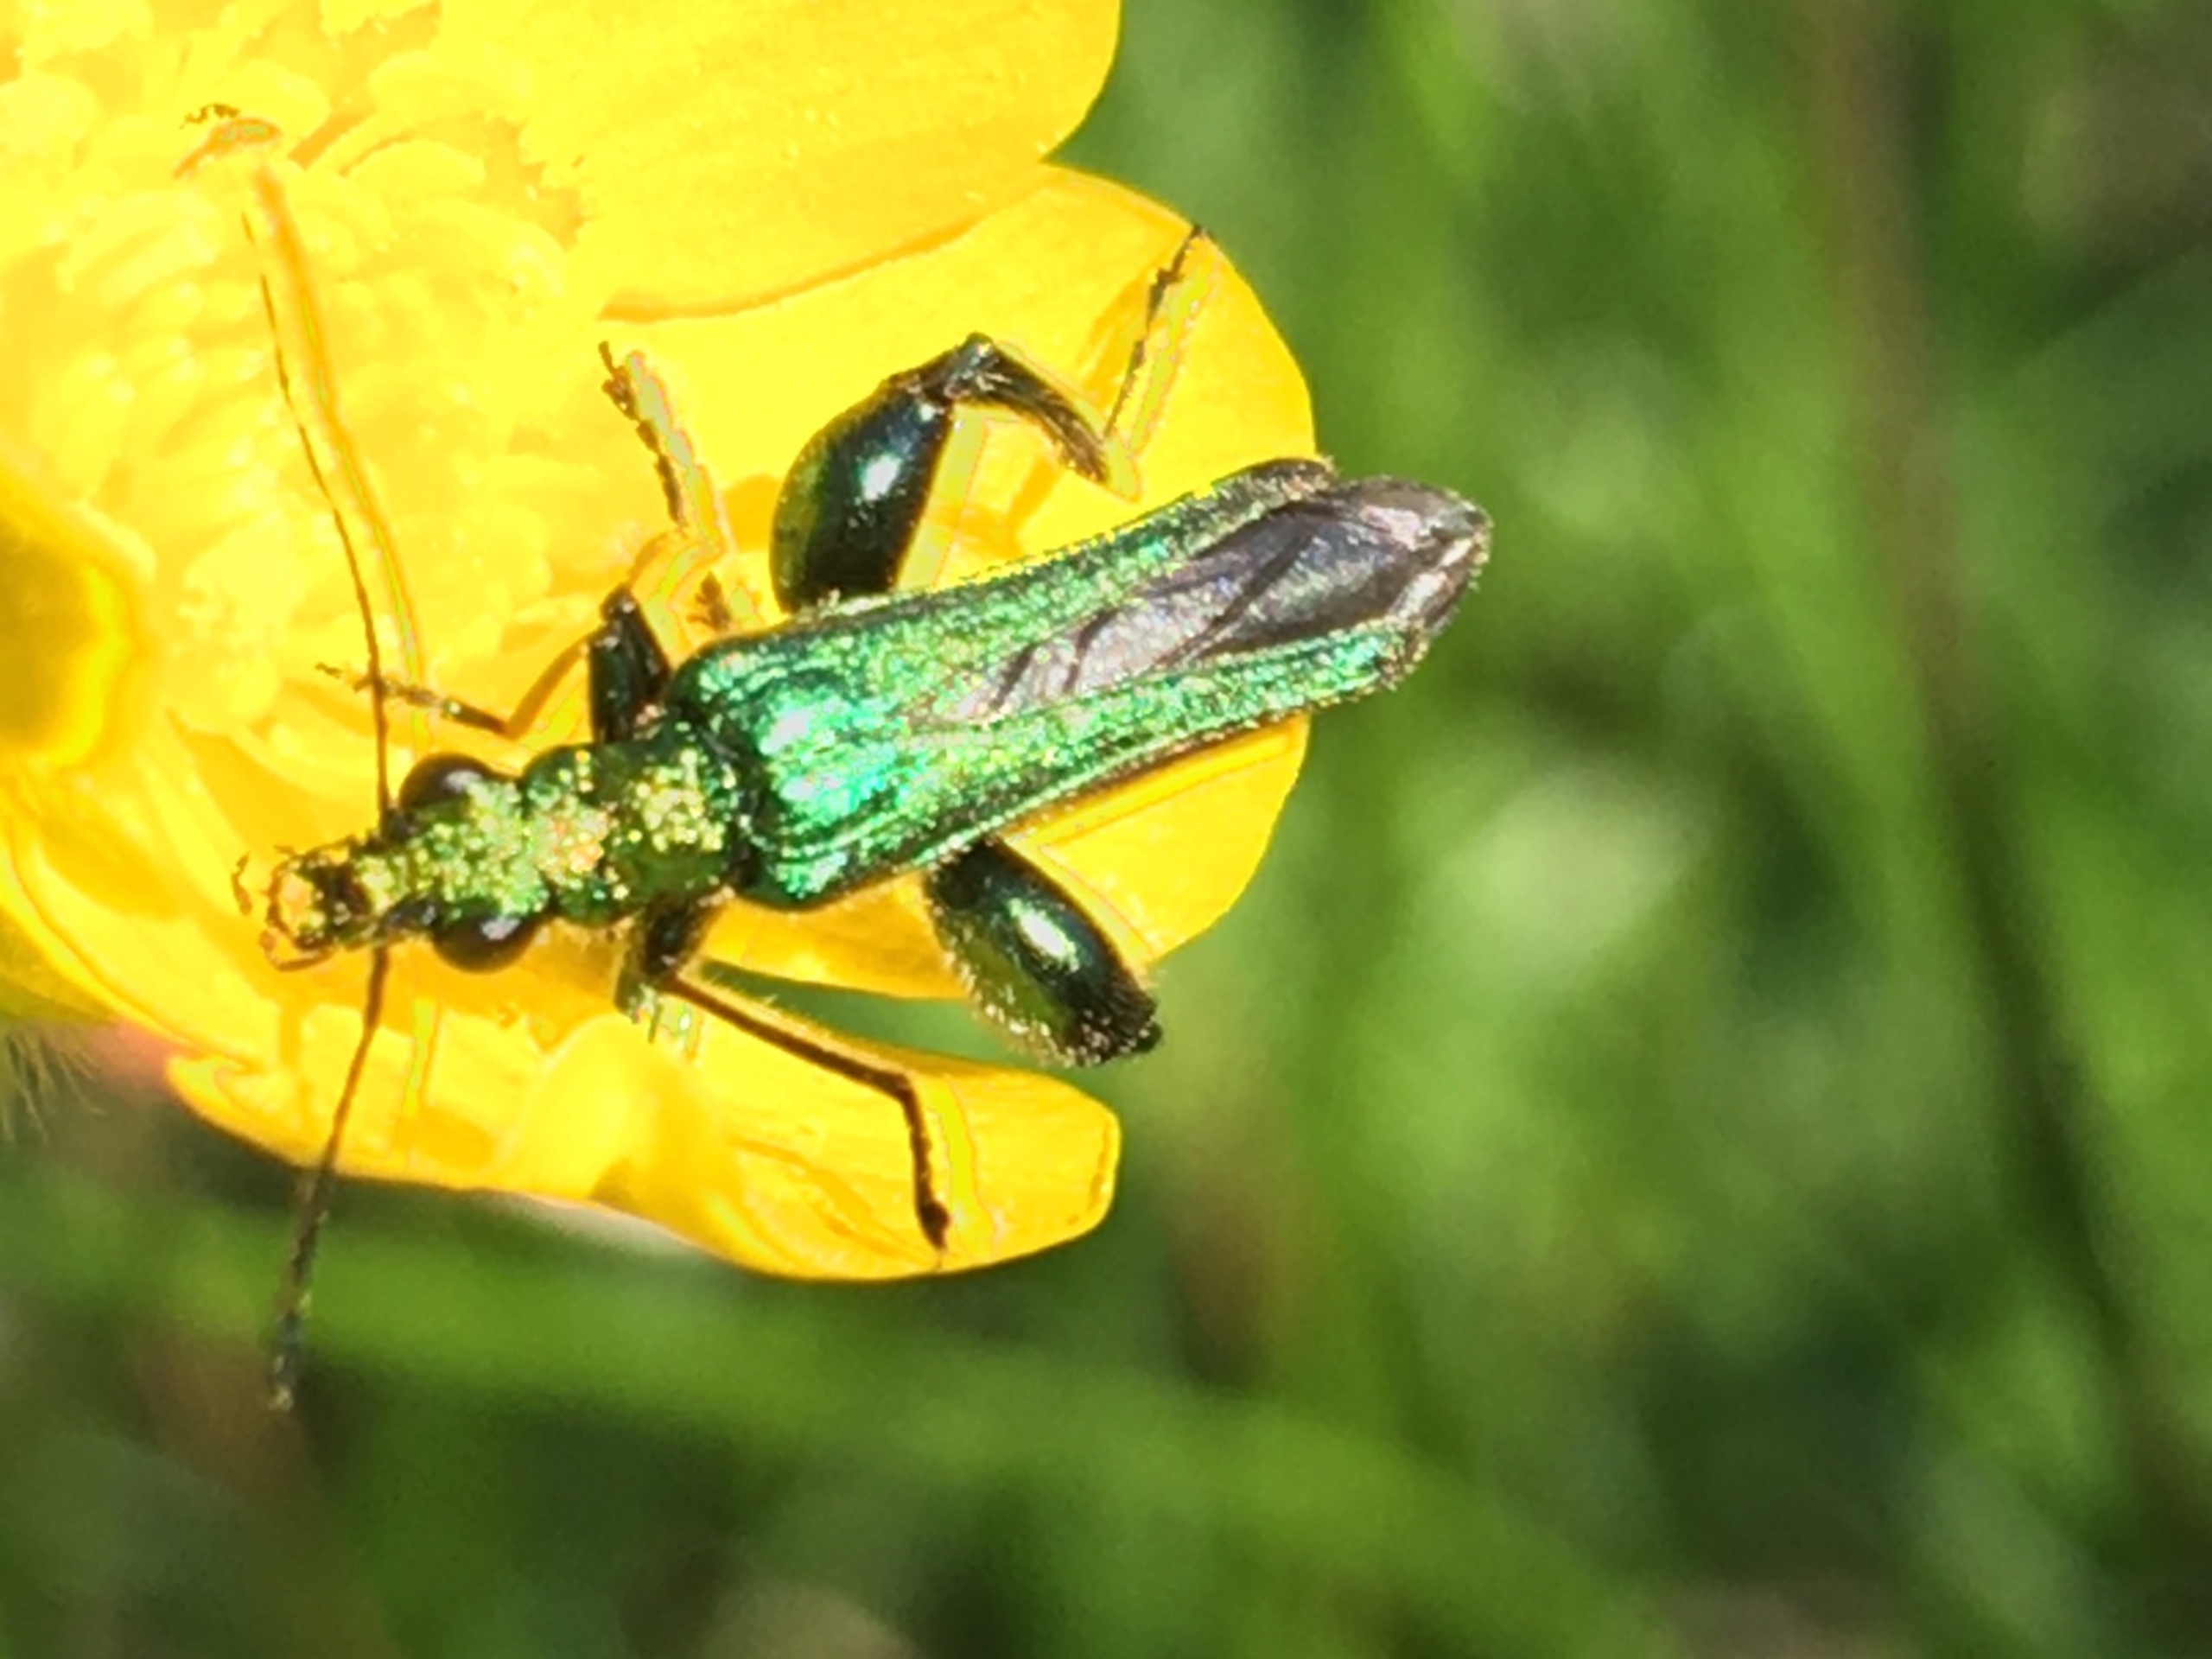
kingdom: Animalia
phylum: Arthropoda
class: Insecta
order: Coleoptera
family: Oedemeridae
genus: Oedemera
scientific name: Oedemera nobilis
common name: Tyklårssolbille
